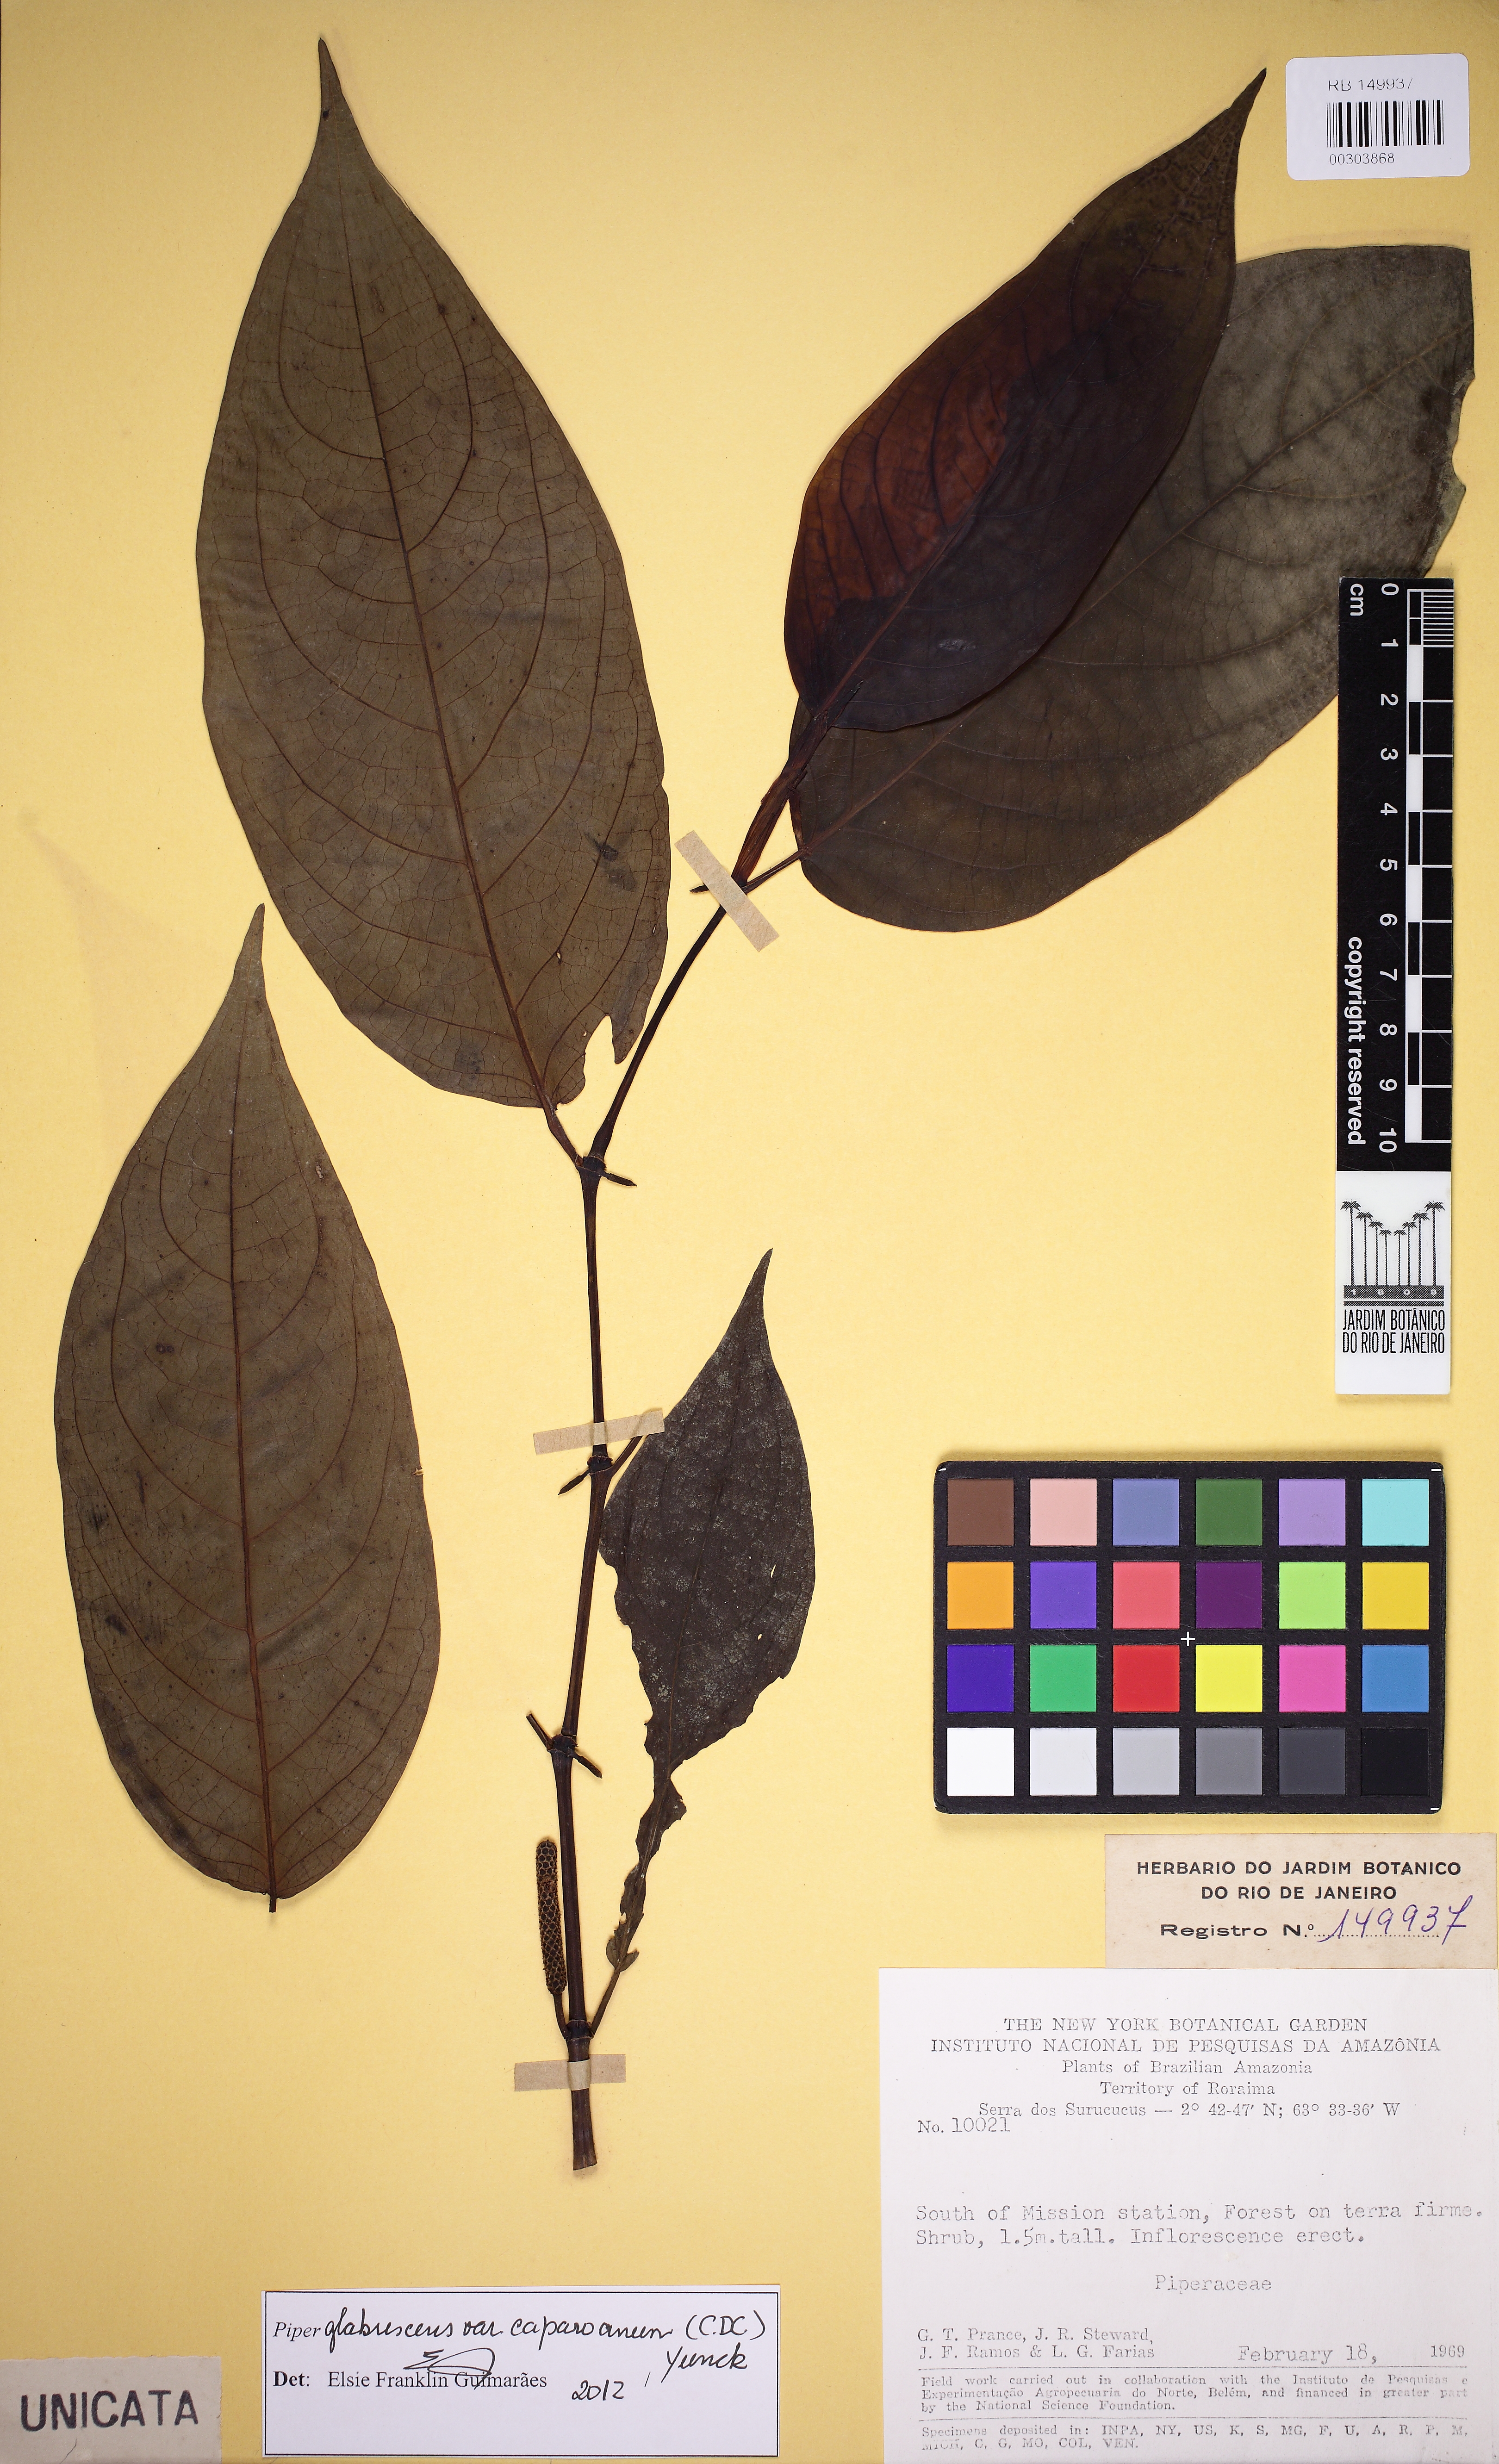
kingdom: Plantae
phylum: Tracheophyta
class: Magnoliopsida
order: Piperales
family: Piperaceae
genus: Piper
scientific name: Piper glabrescens
